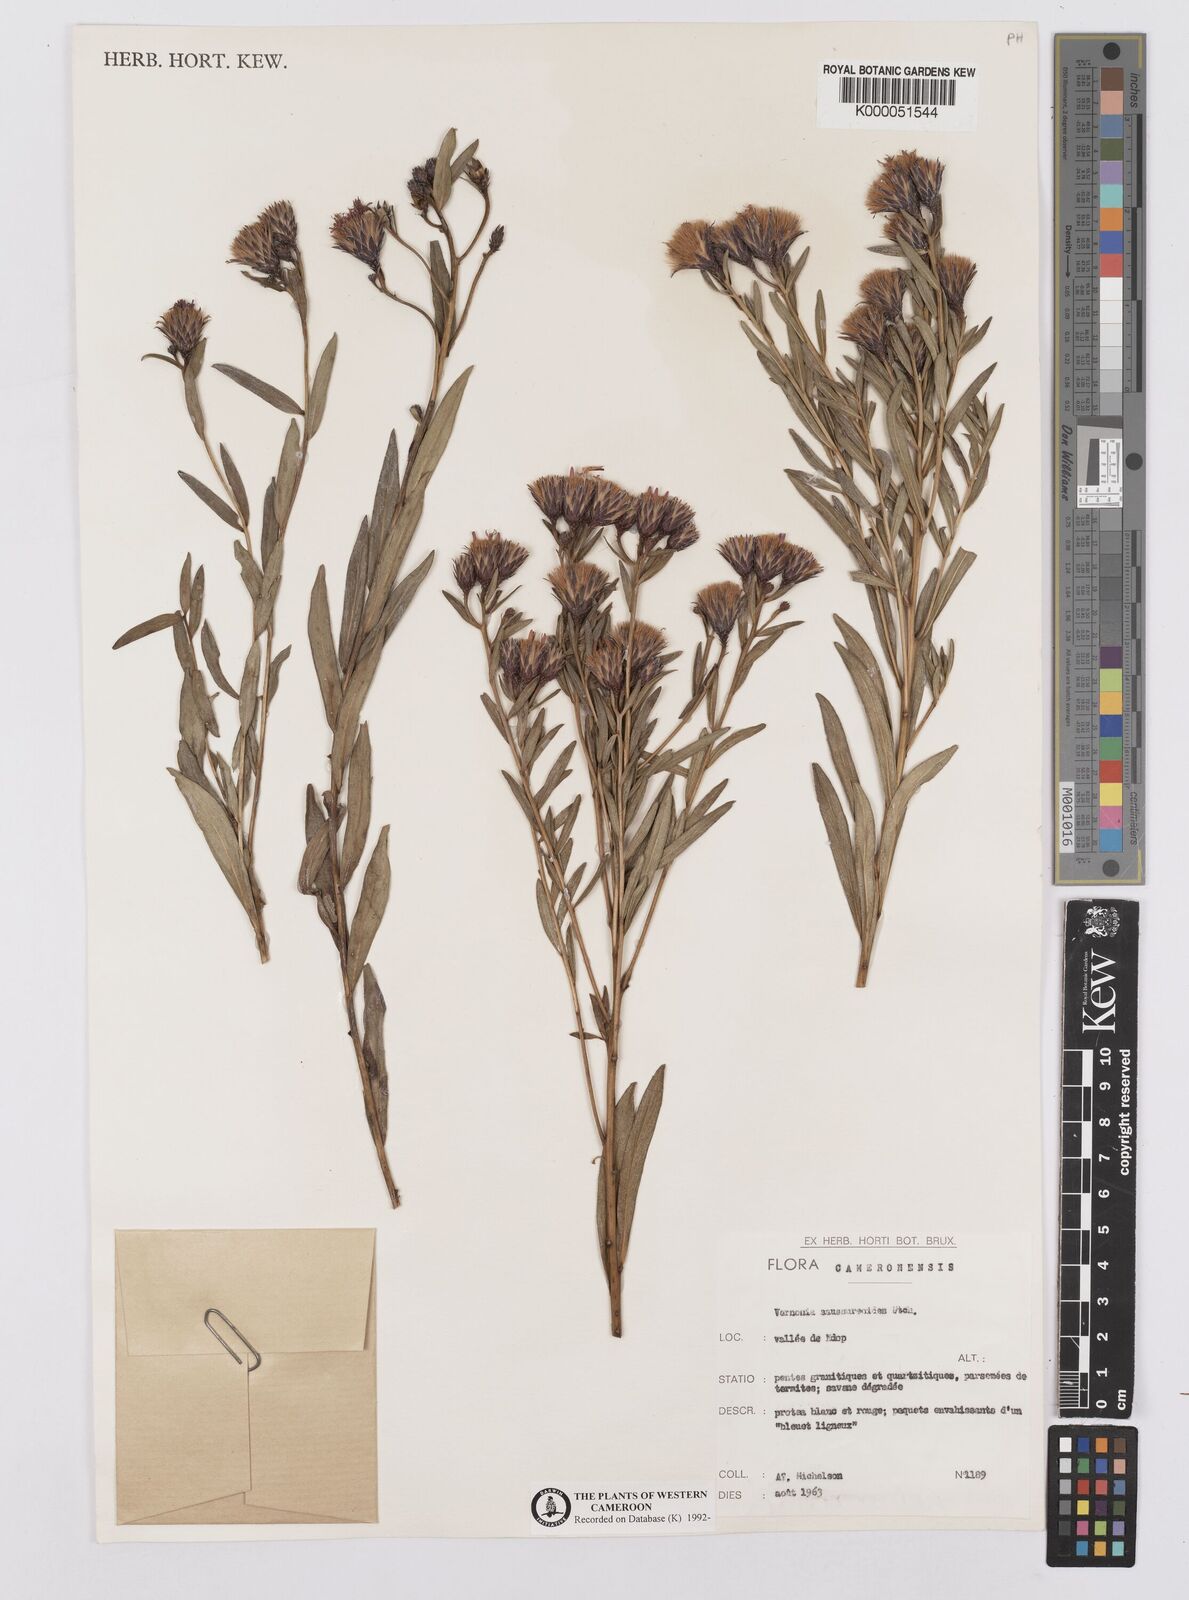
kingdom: Plantae
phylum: Tracheophyta
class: Magnoliopsida
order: Asterales
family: Asteraceae
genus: Vernonia
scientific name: Vernonia
